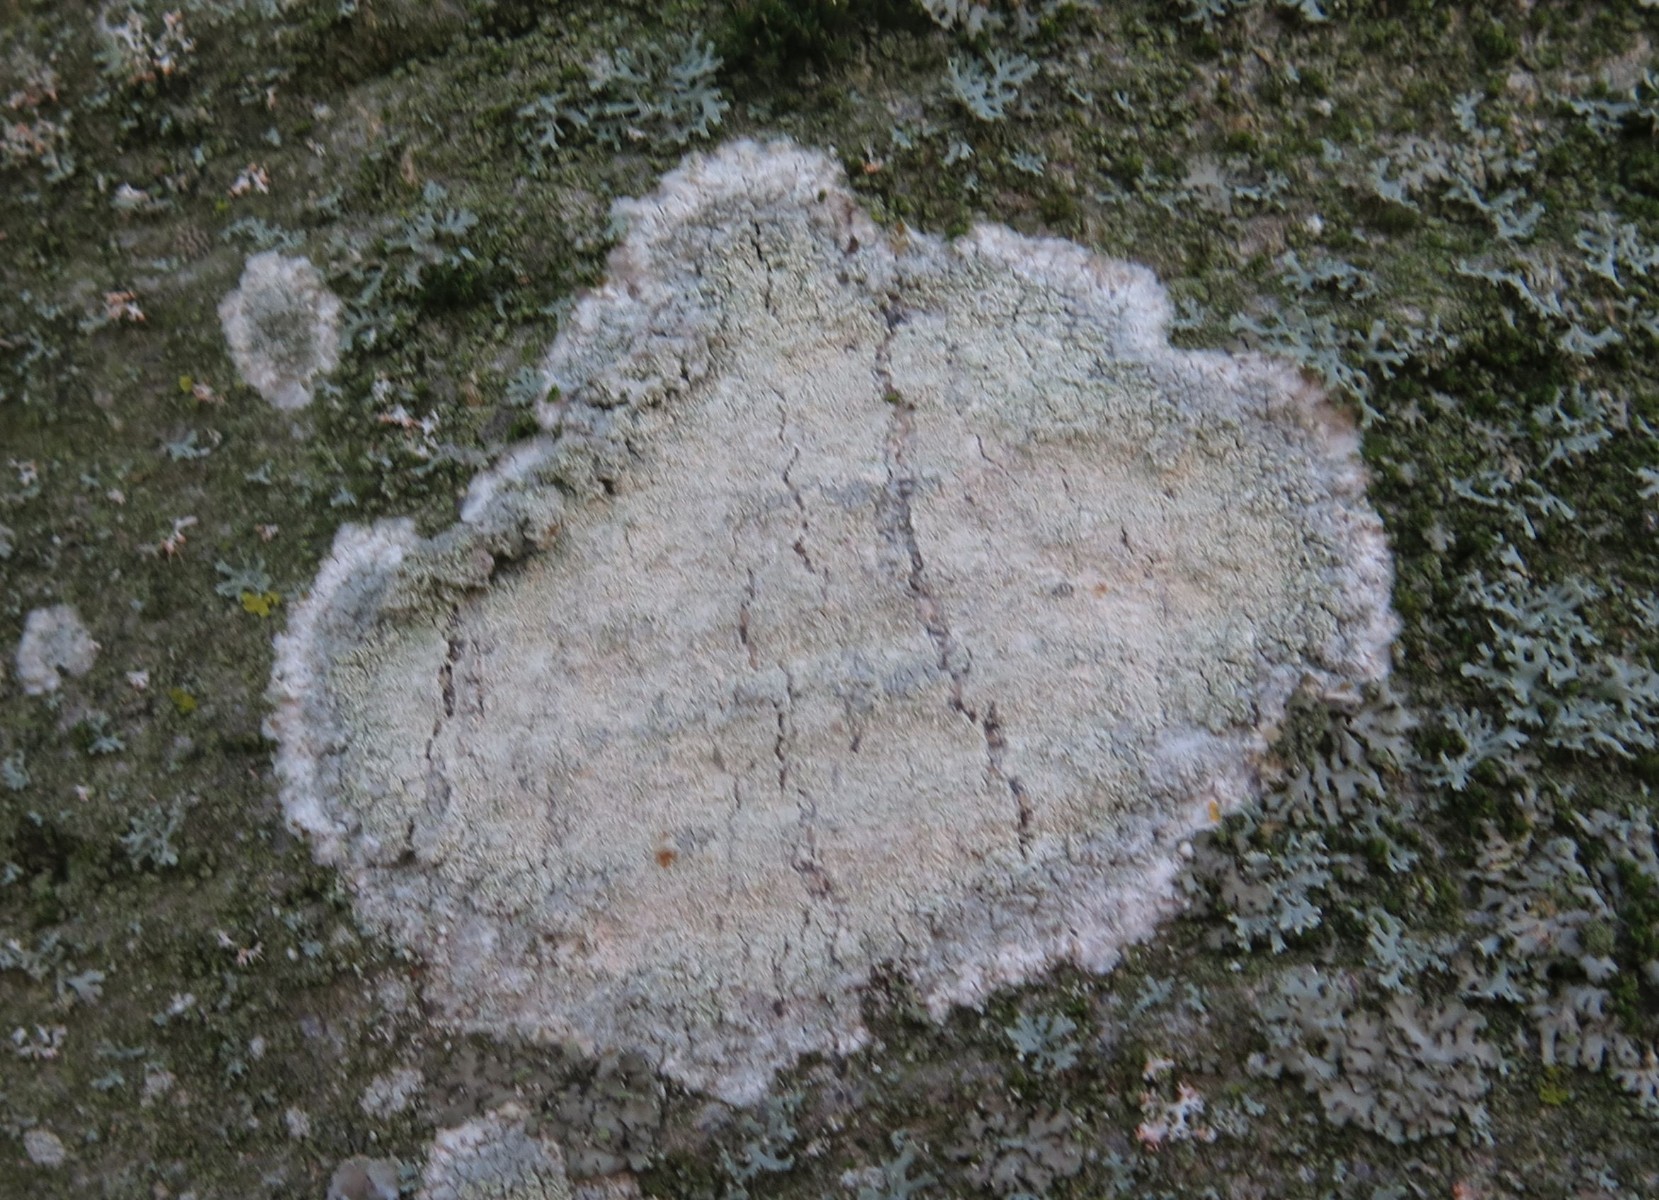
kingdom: Fungi
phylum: Ascomycota
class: Lecanoromycetes
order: Lecanorales
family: Haematommataceae
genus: Haematomma
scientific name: Haematomma ochroleucum
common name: gul trådkantlav
